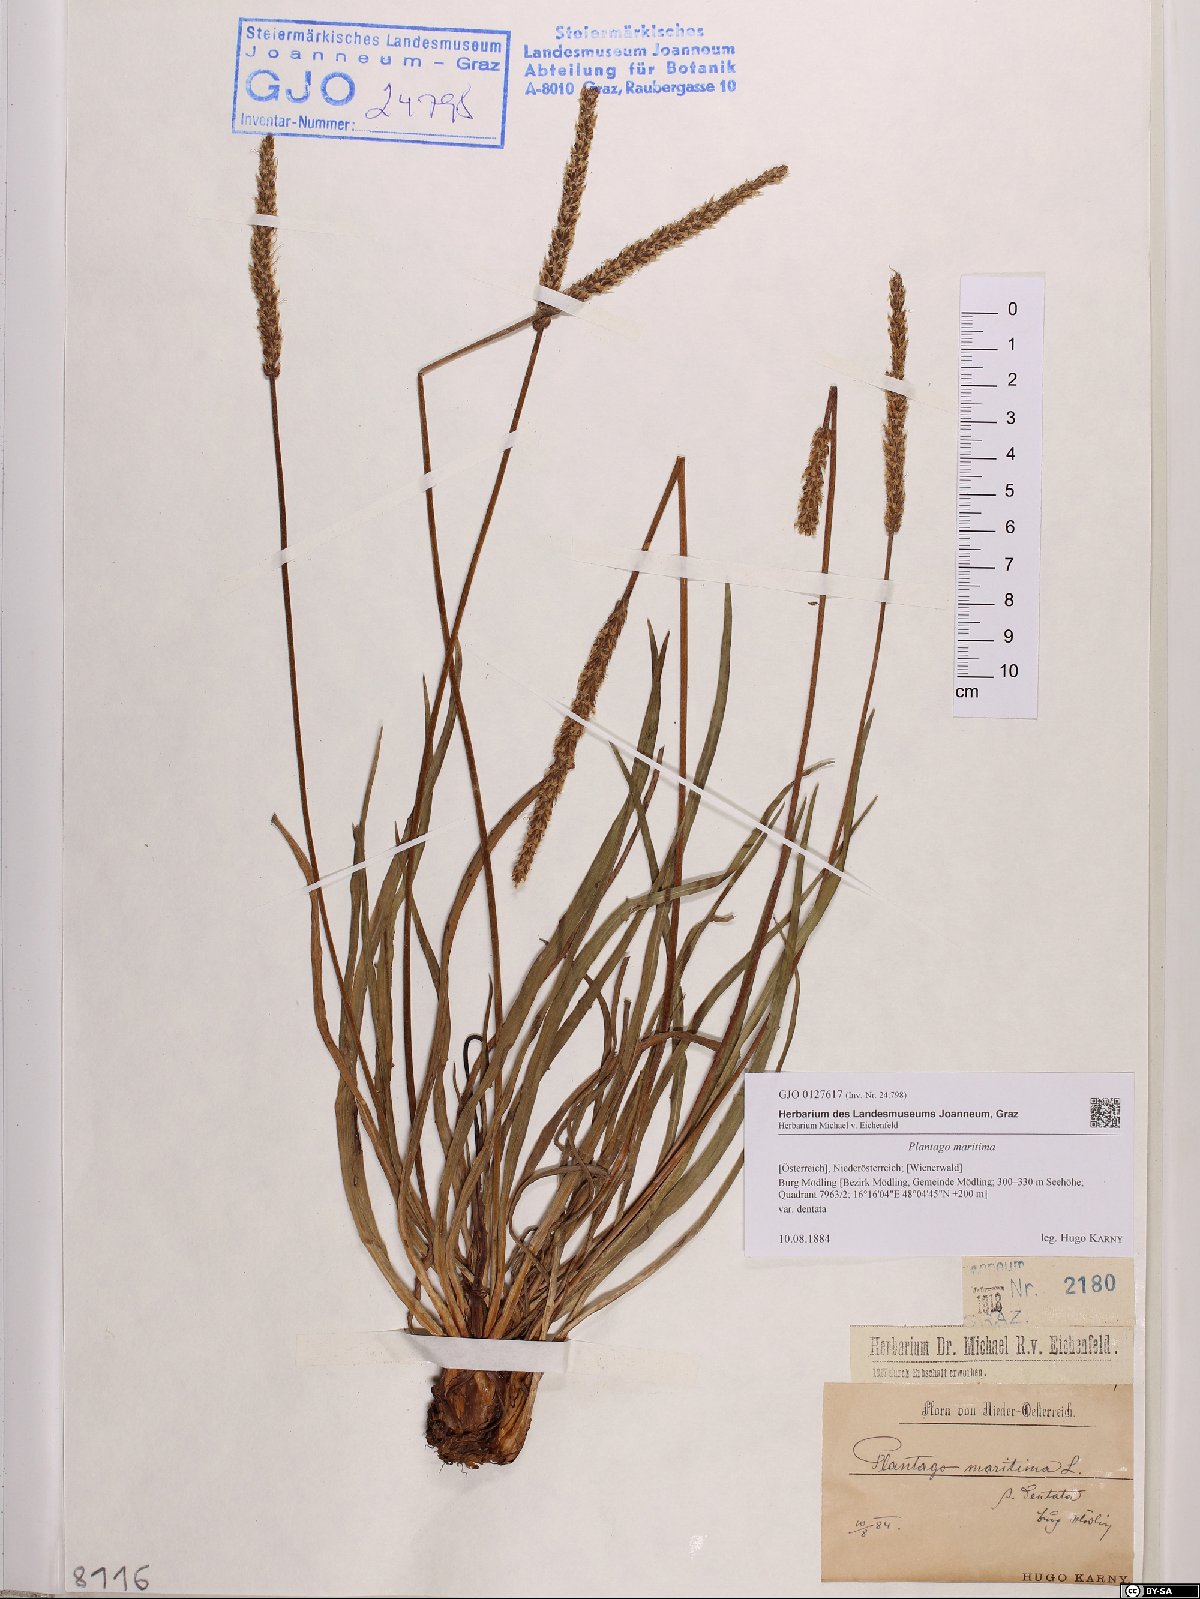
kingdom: Plantae
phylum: Tracheophyta
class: Magnoliopsida
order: Lamiales
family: Plantaginaceae
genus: Plantago
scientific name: Plantago maritima
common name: Sea plantain
